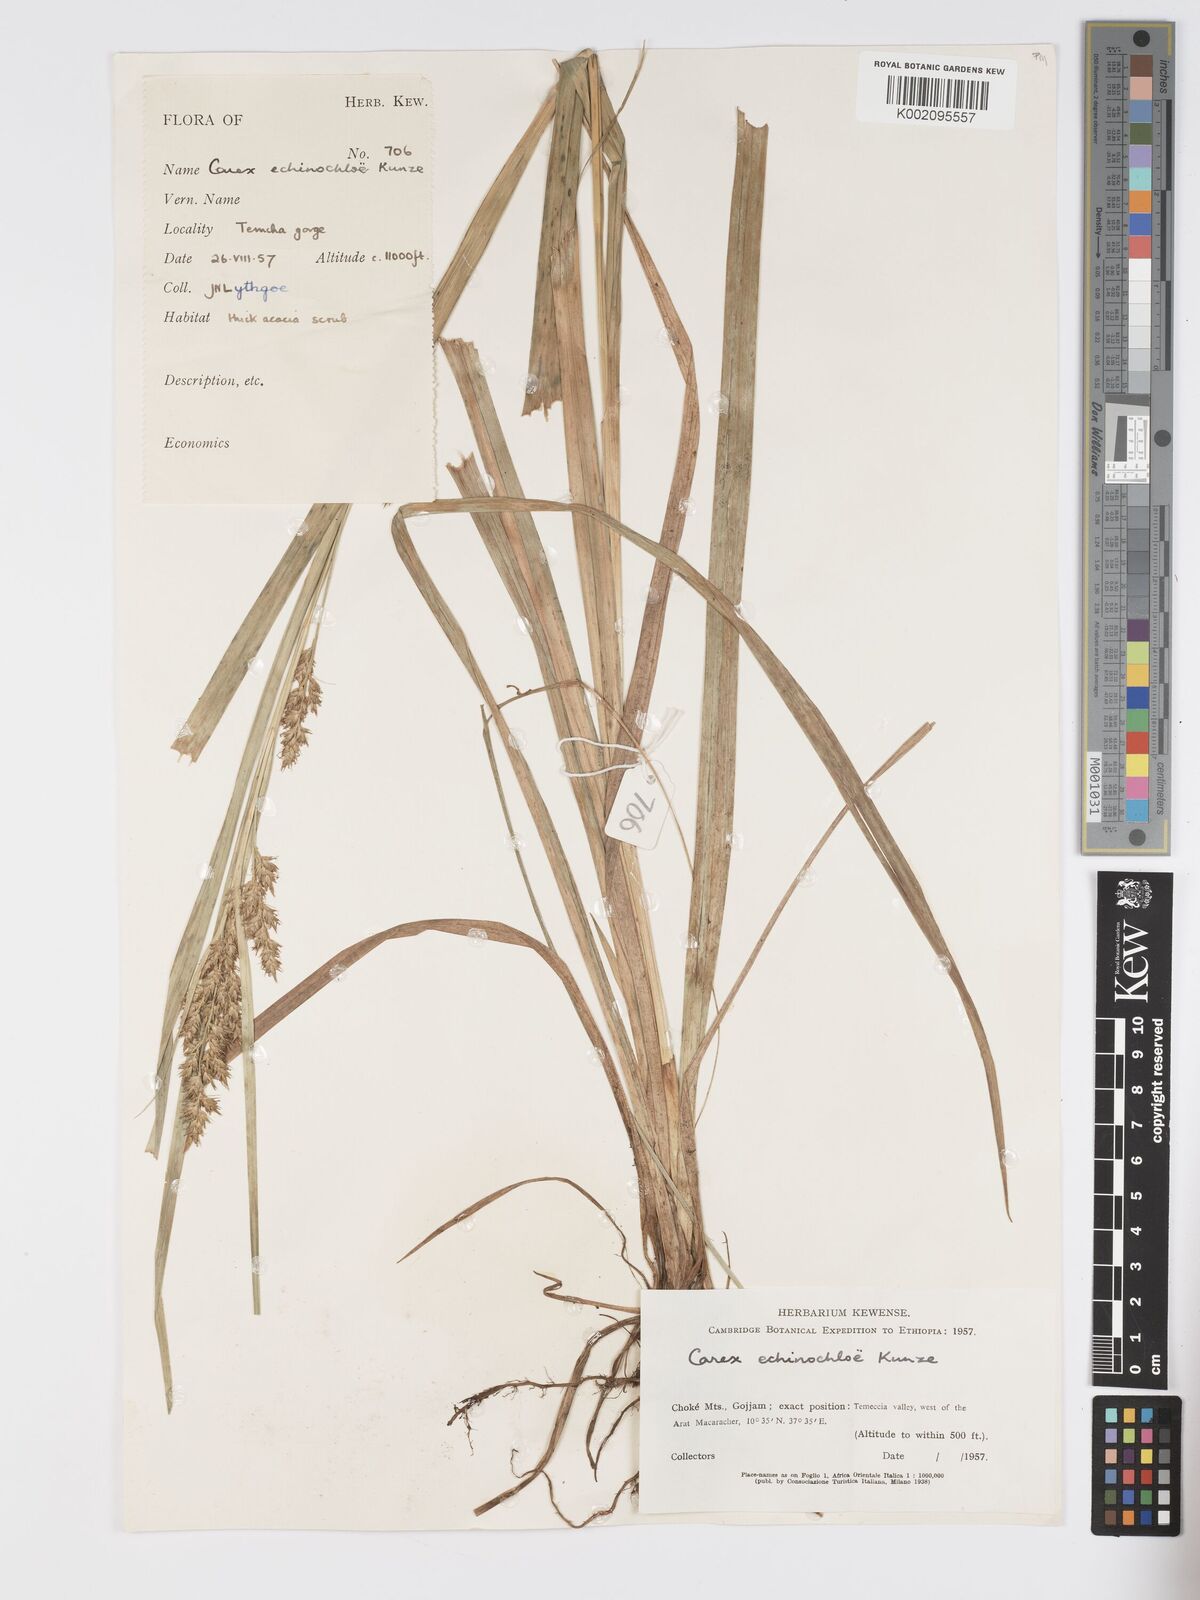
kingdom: Plantae
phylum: Tracheophyta
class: Liliopsida
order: Poales
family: Cyperaceae
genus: Carex
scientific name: Carex echinochloe
